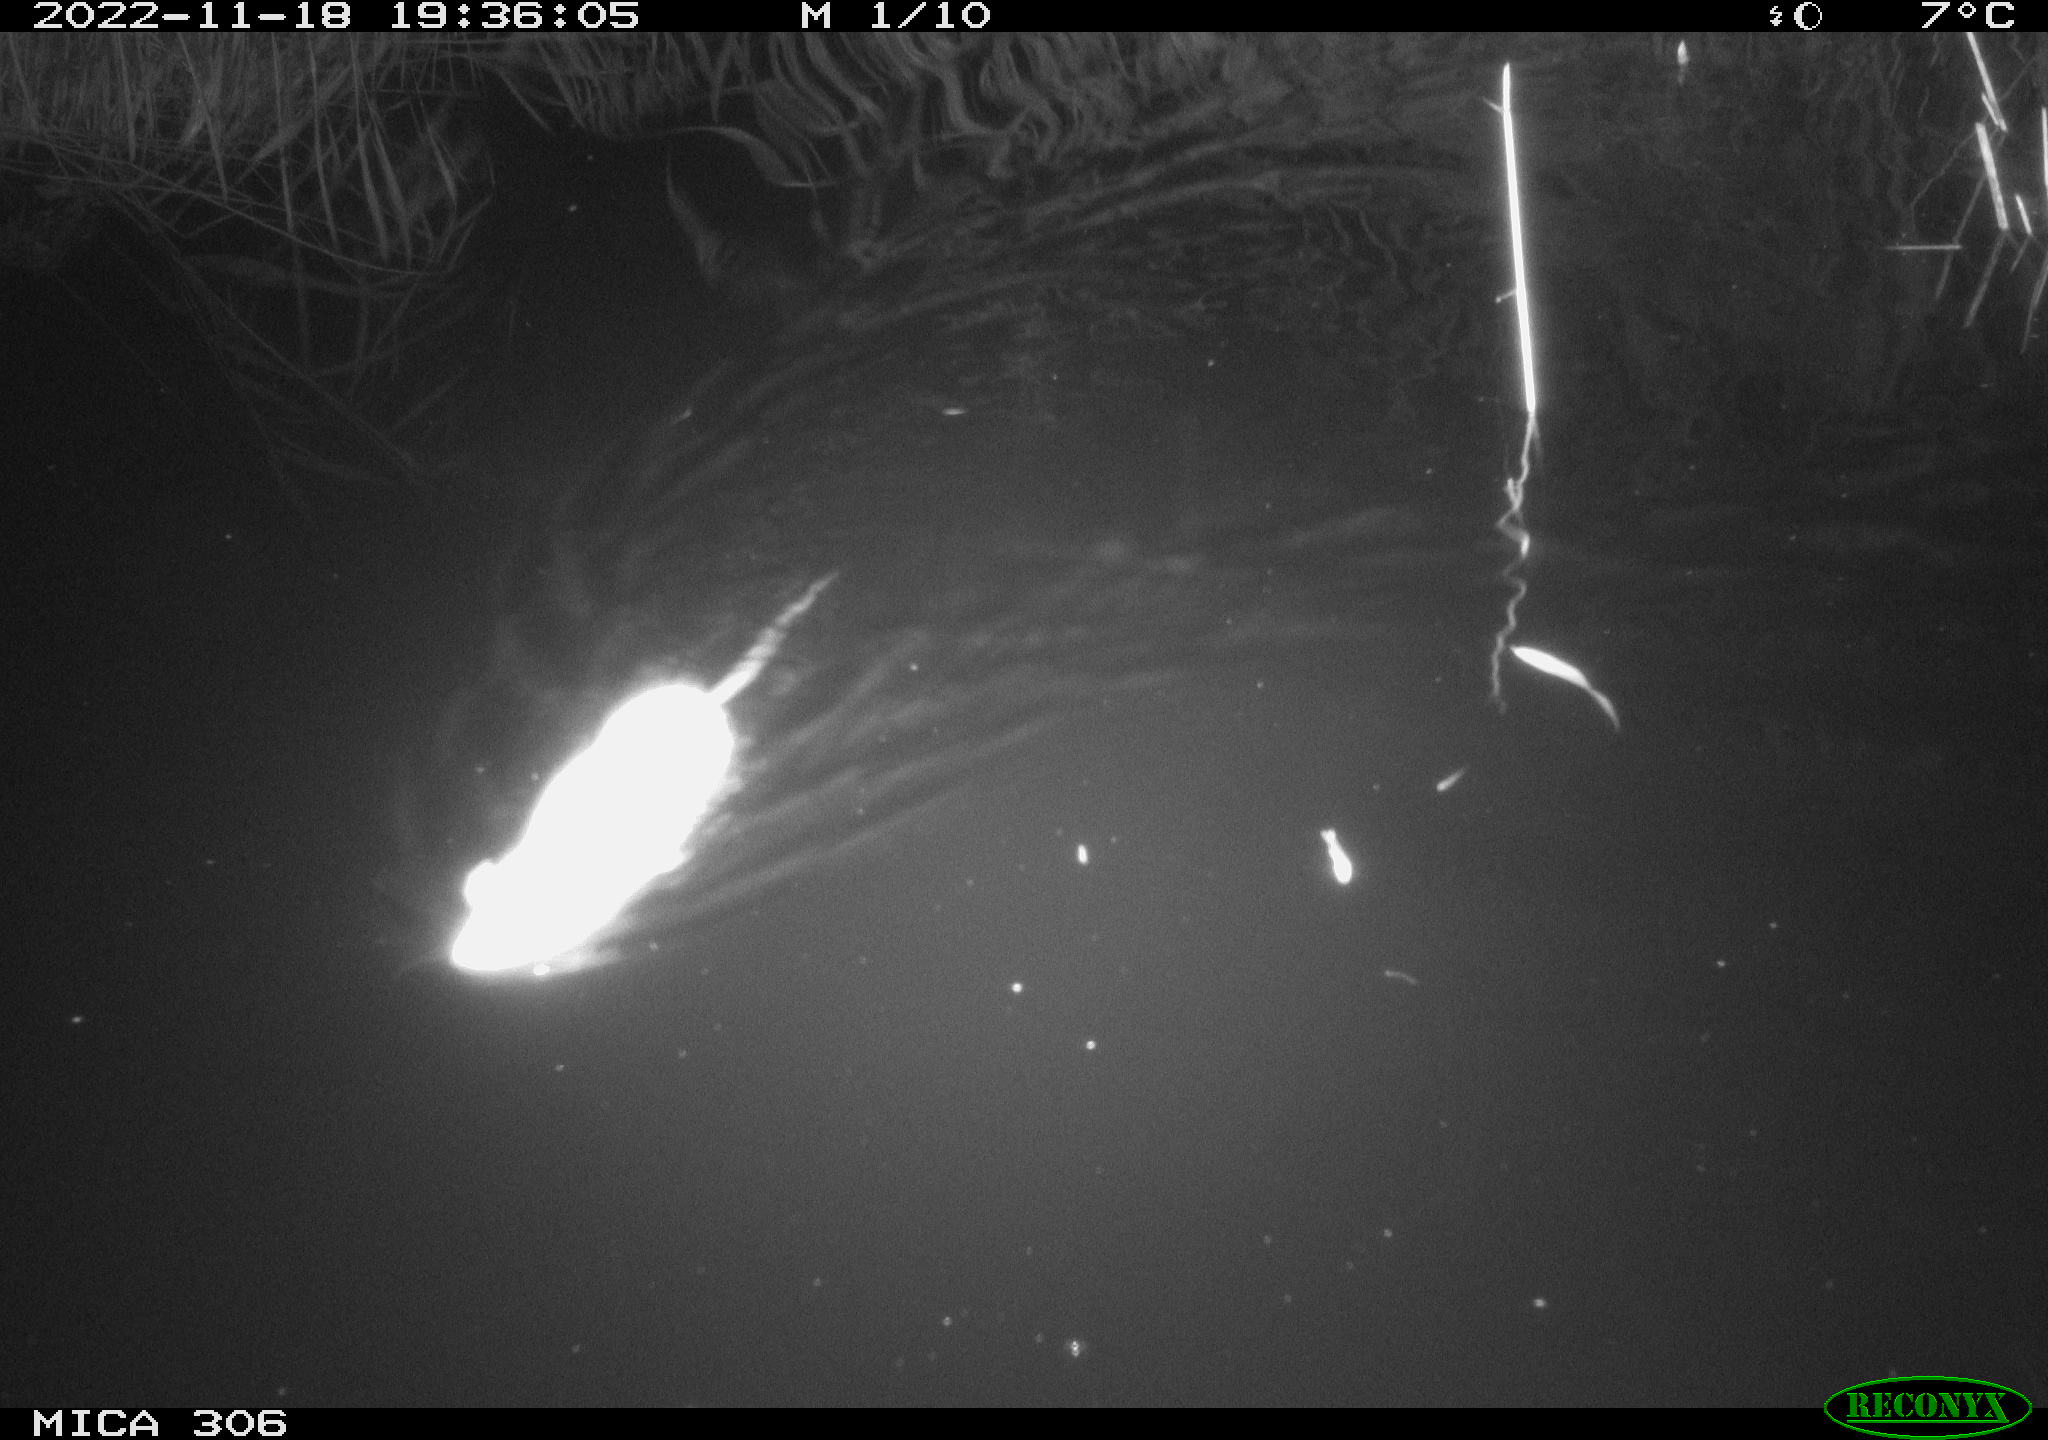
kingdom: Animalia
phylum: Chordata
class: Mammalia
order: Rodentia
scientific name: Rodentia
